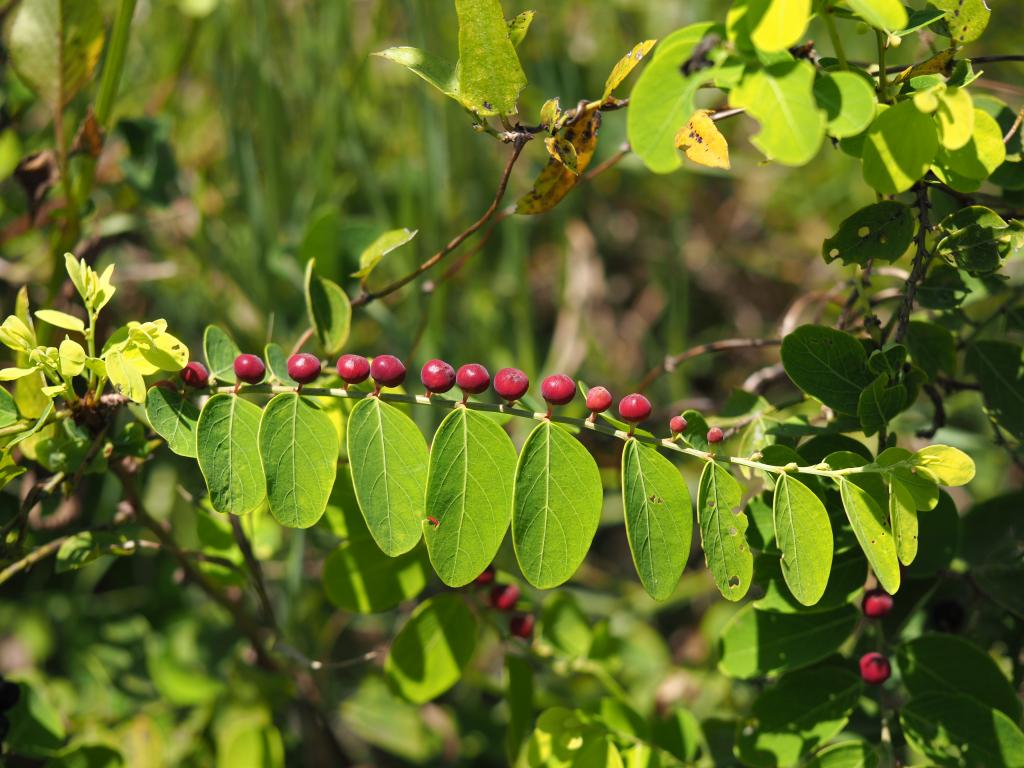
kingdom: Plantae
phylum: Tracheophyta
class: Magnoliopsida
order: Malpighiales
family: Phyllanthaceae
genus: Breynia
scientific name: Breynia officinalis
